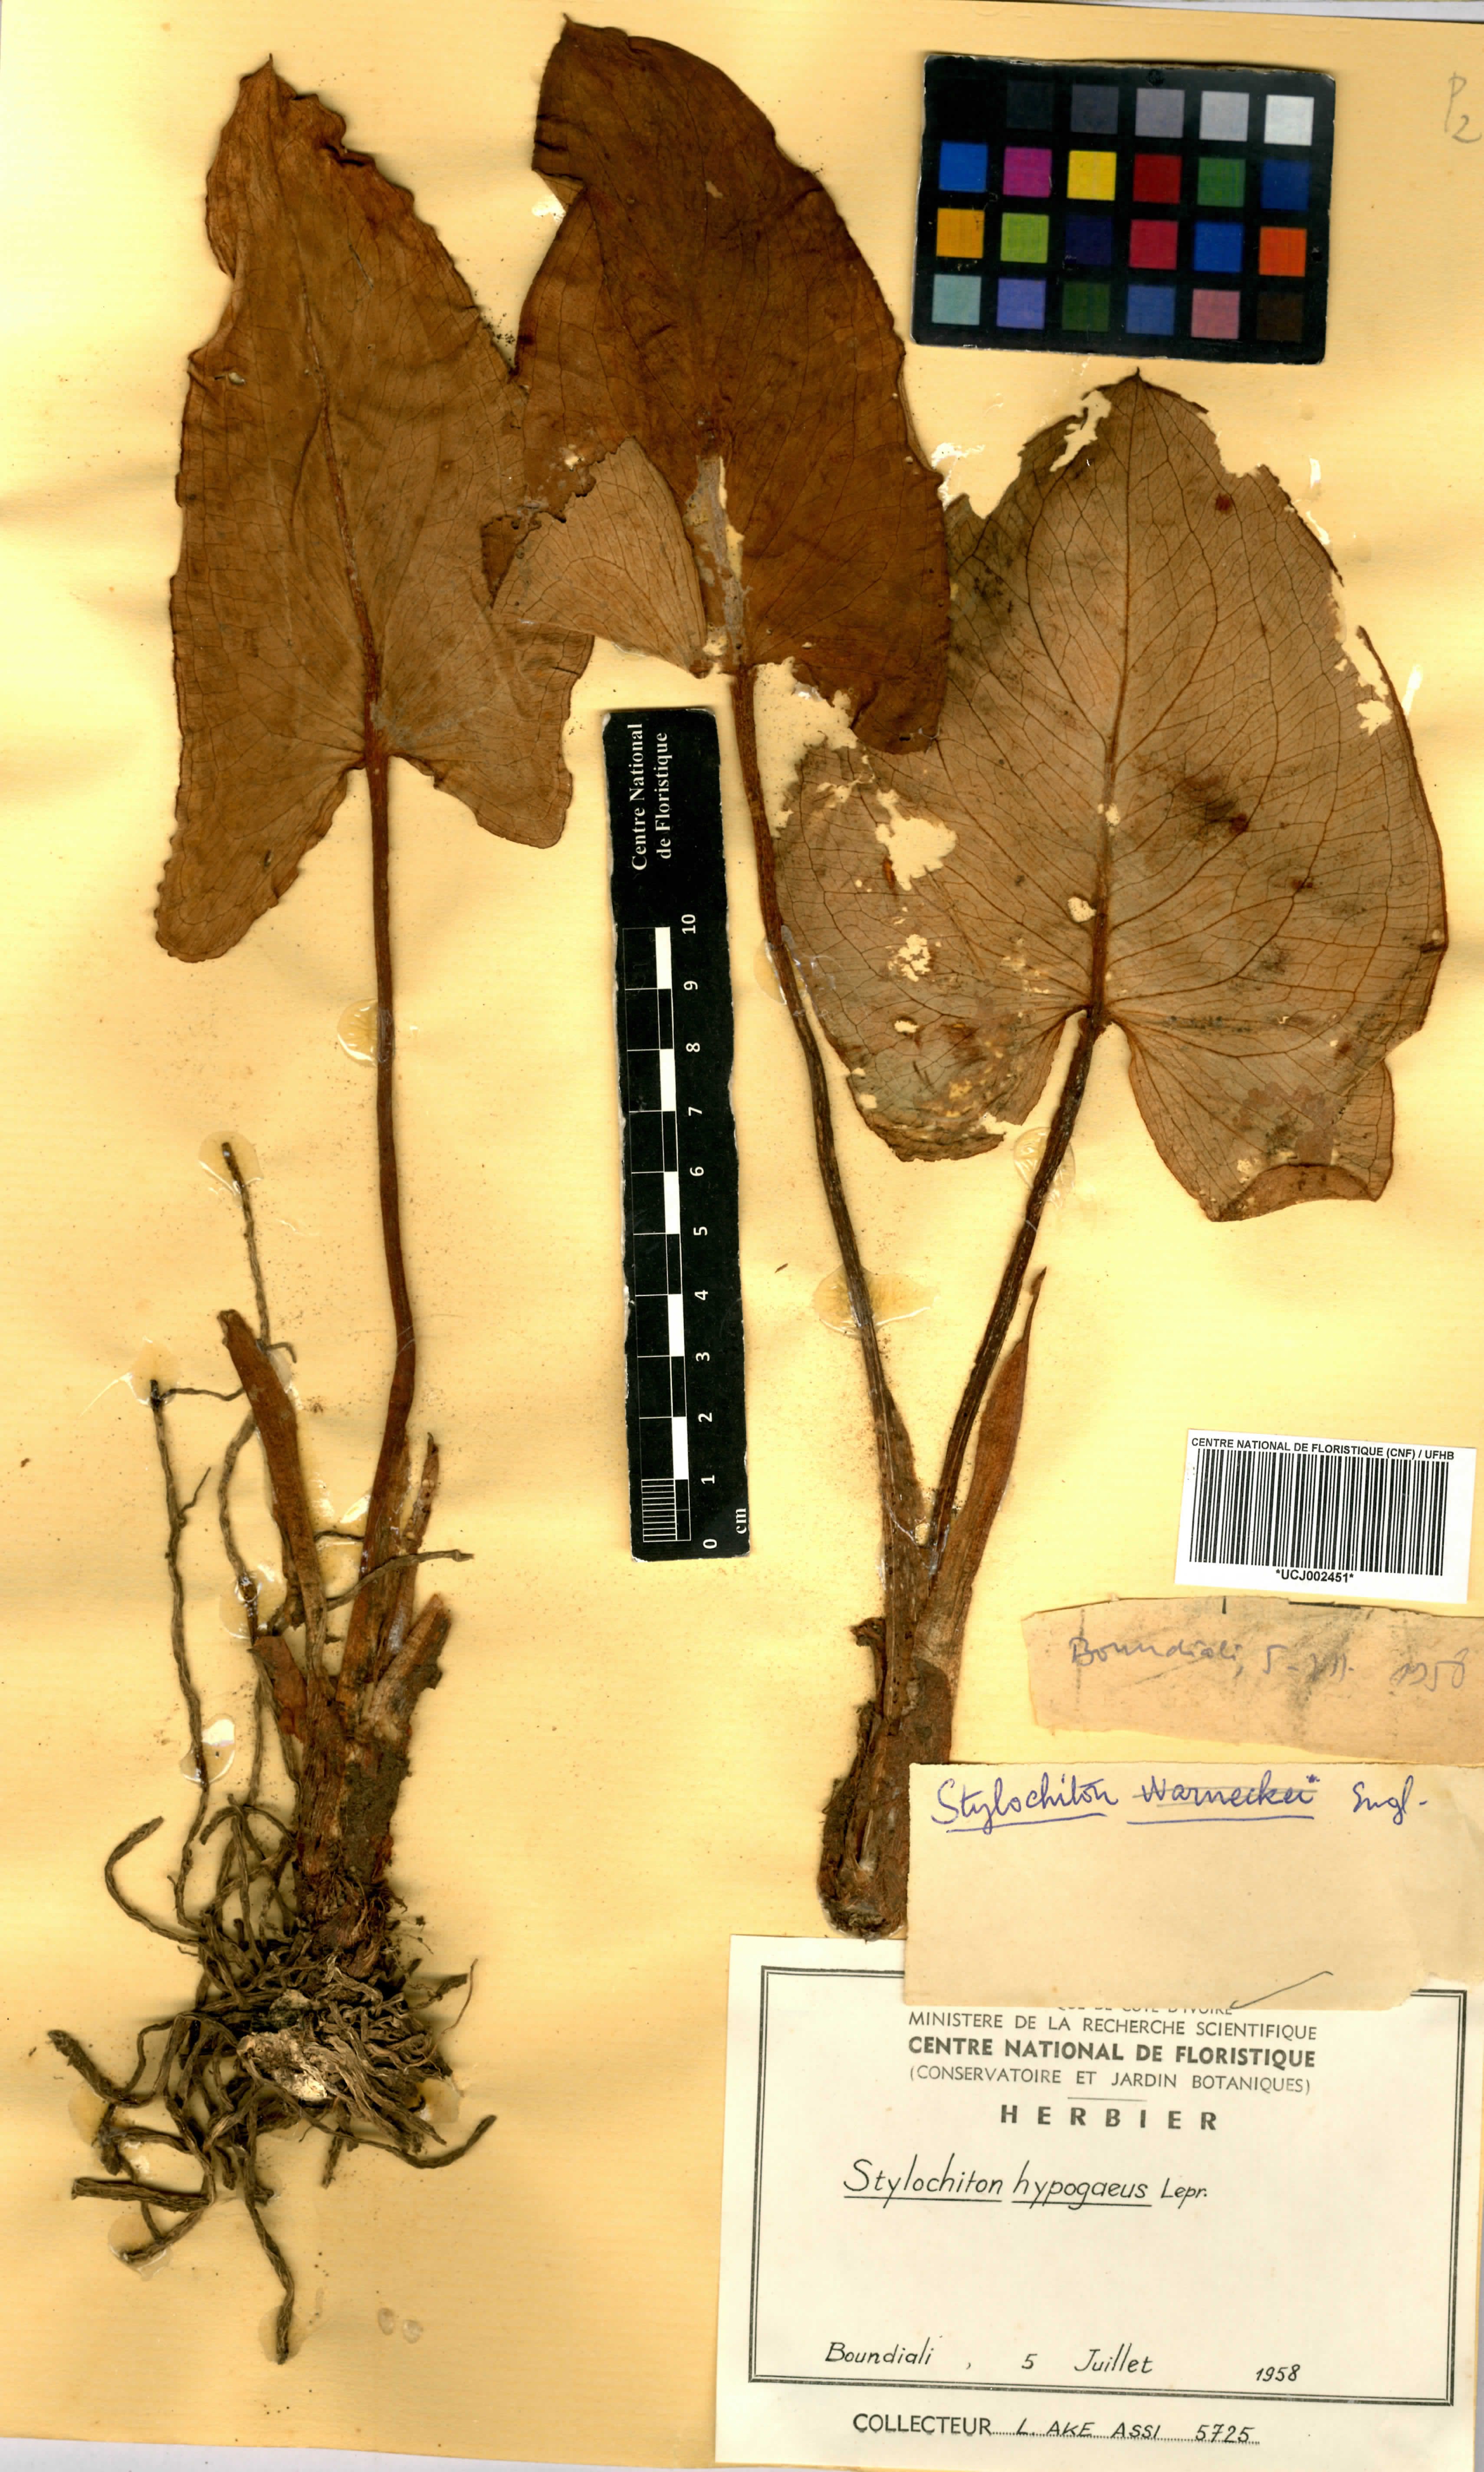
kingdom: Plantae
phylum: Tracheophyta
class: Liliopsida
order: Alismatales
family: Araceae
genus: Stylochaeton
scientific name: Stylochaeton hypogaeum
